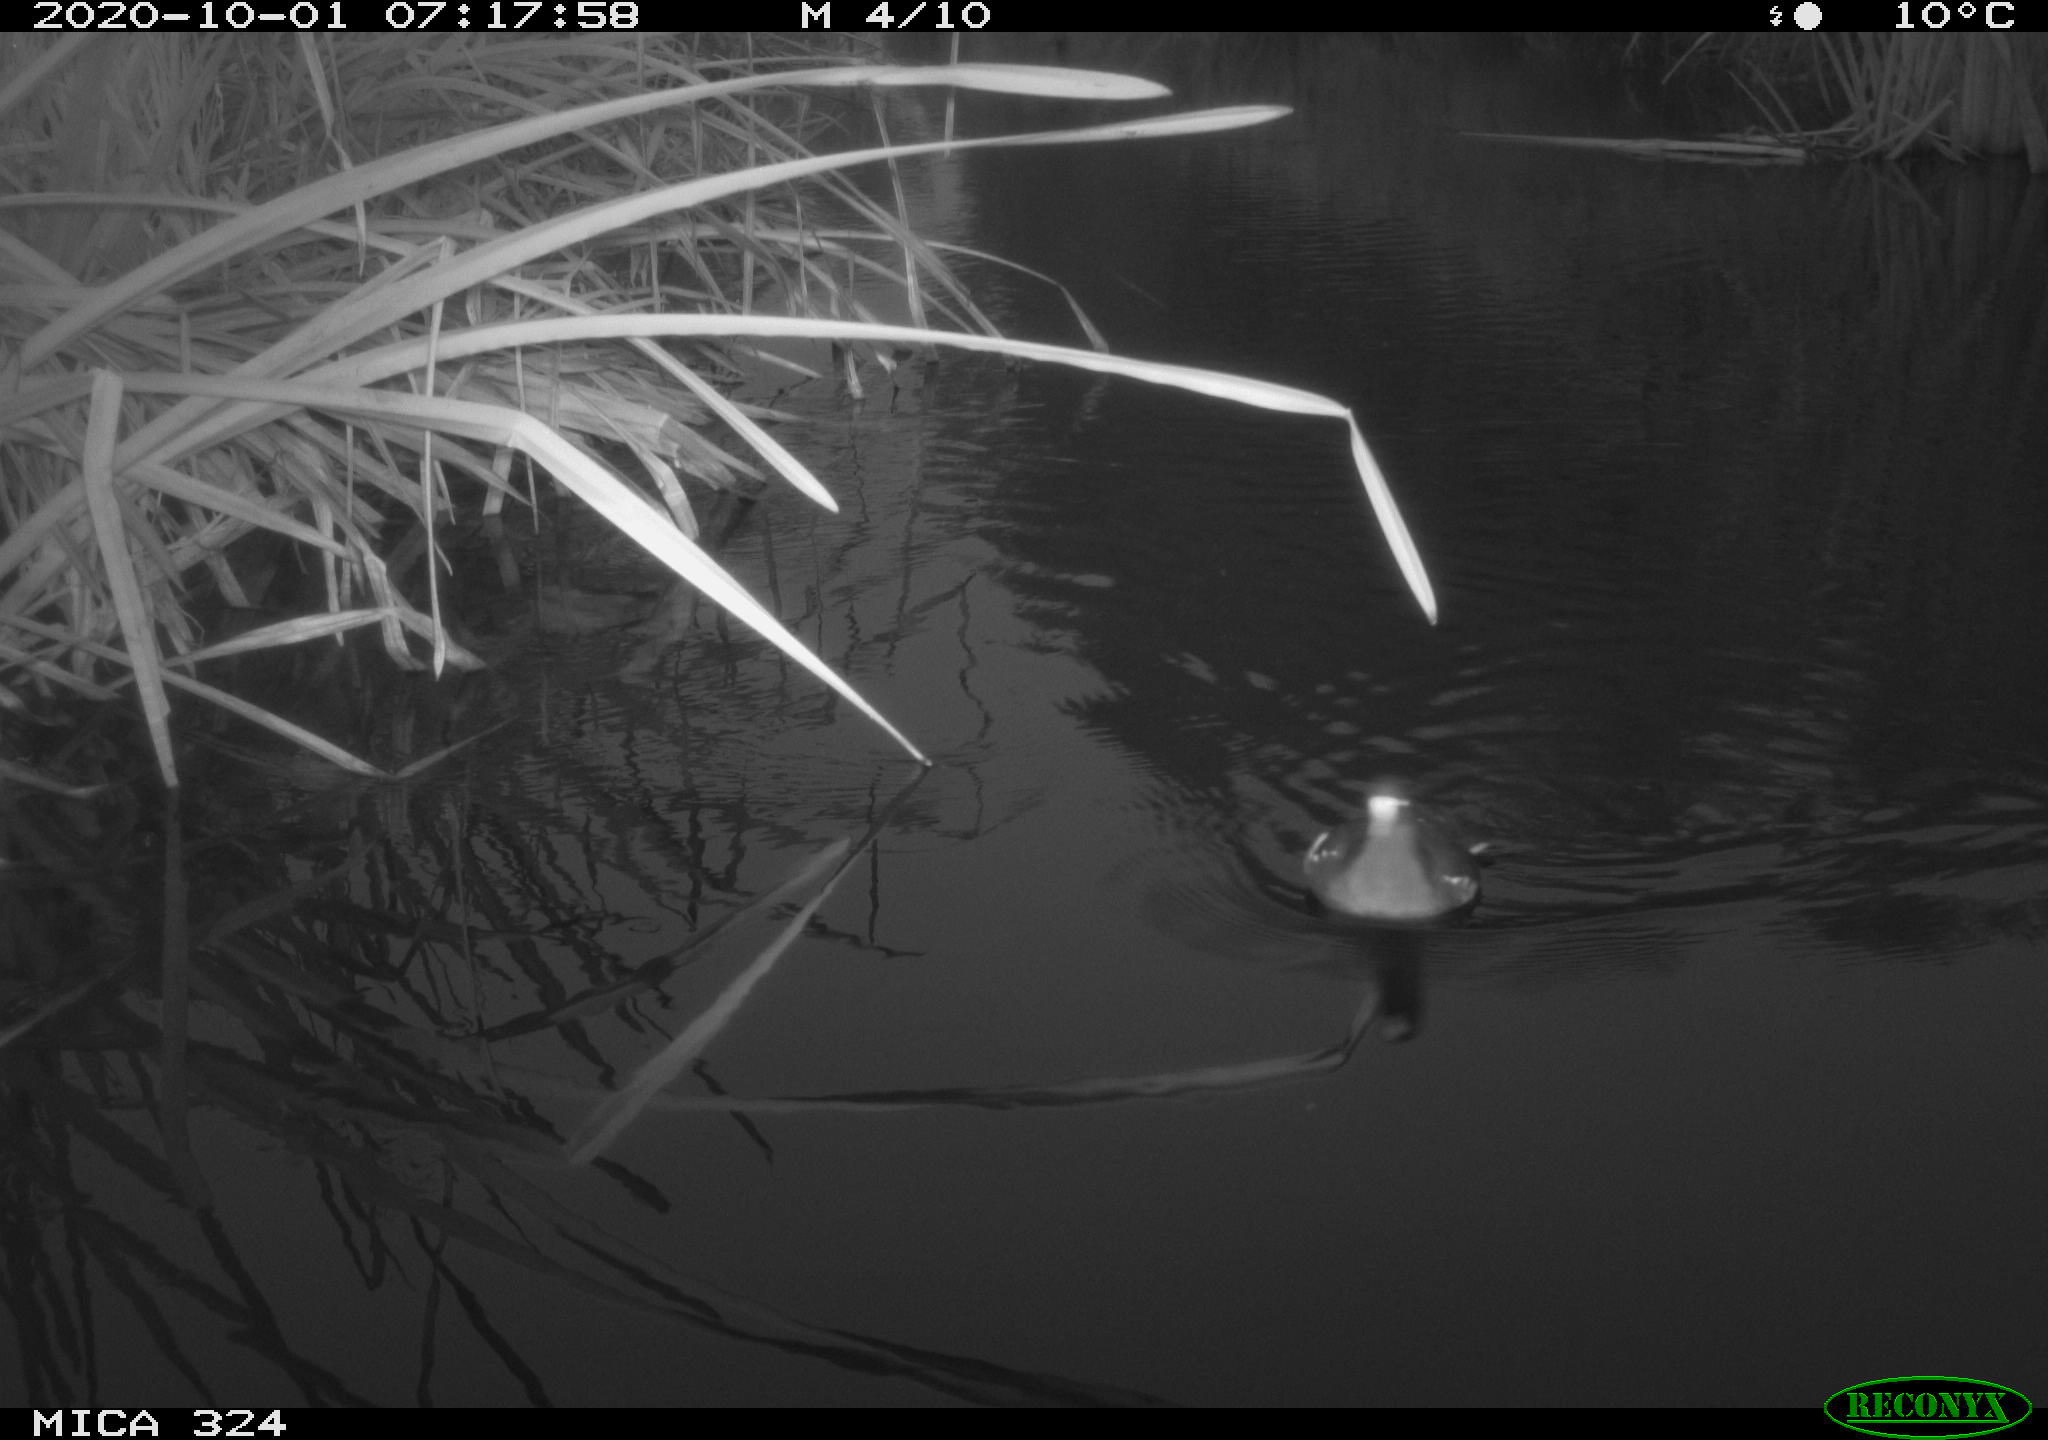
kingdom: Animalia
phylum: Chordata
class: Aves
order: Gruiformes
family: Rallidae
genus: Gallinula
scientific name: Gallinula chloropus
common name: Common moorhen
